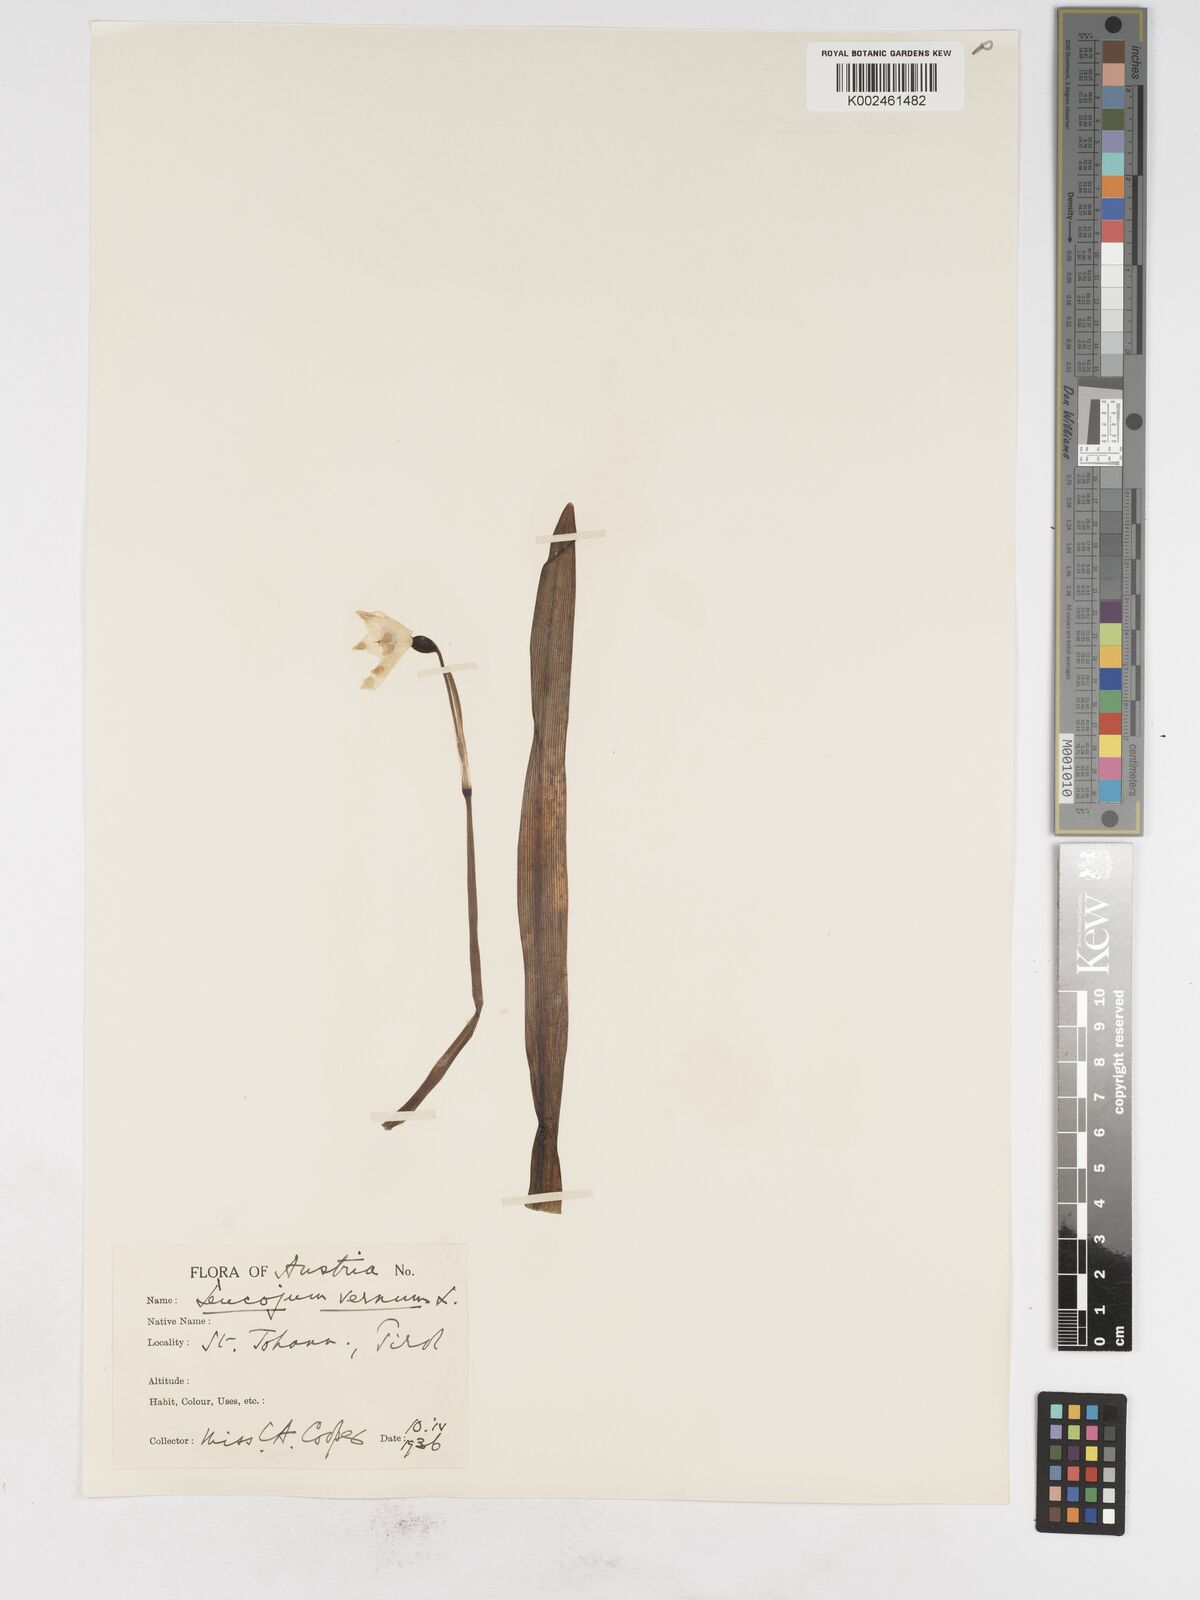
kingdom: Plantae
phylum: Tracheophyta
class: Liliopsida
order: Asparagales
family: Amaryllidaceae
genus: Leucojum
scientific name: Leucojum vernum
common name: Spring snowflake
